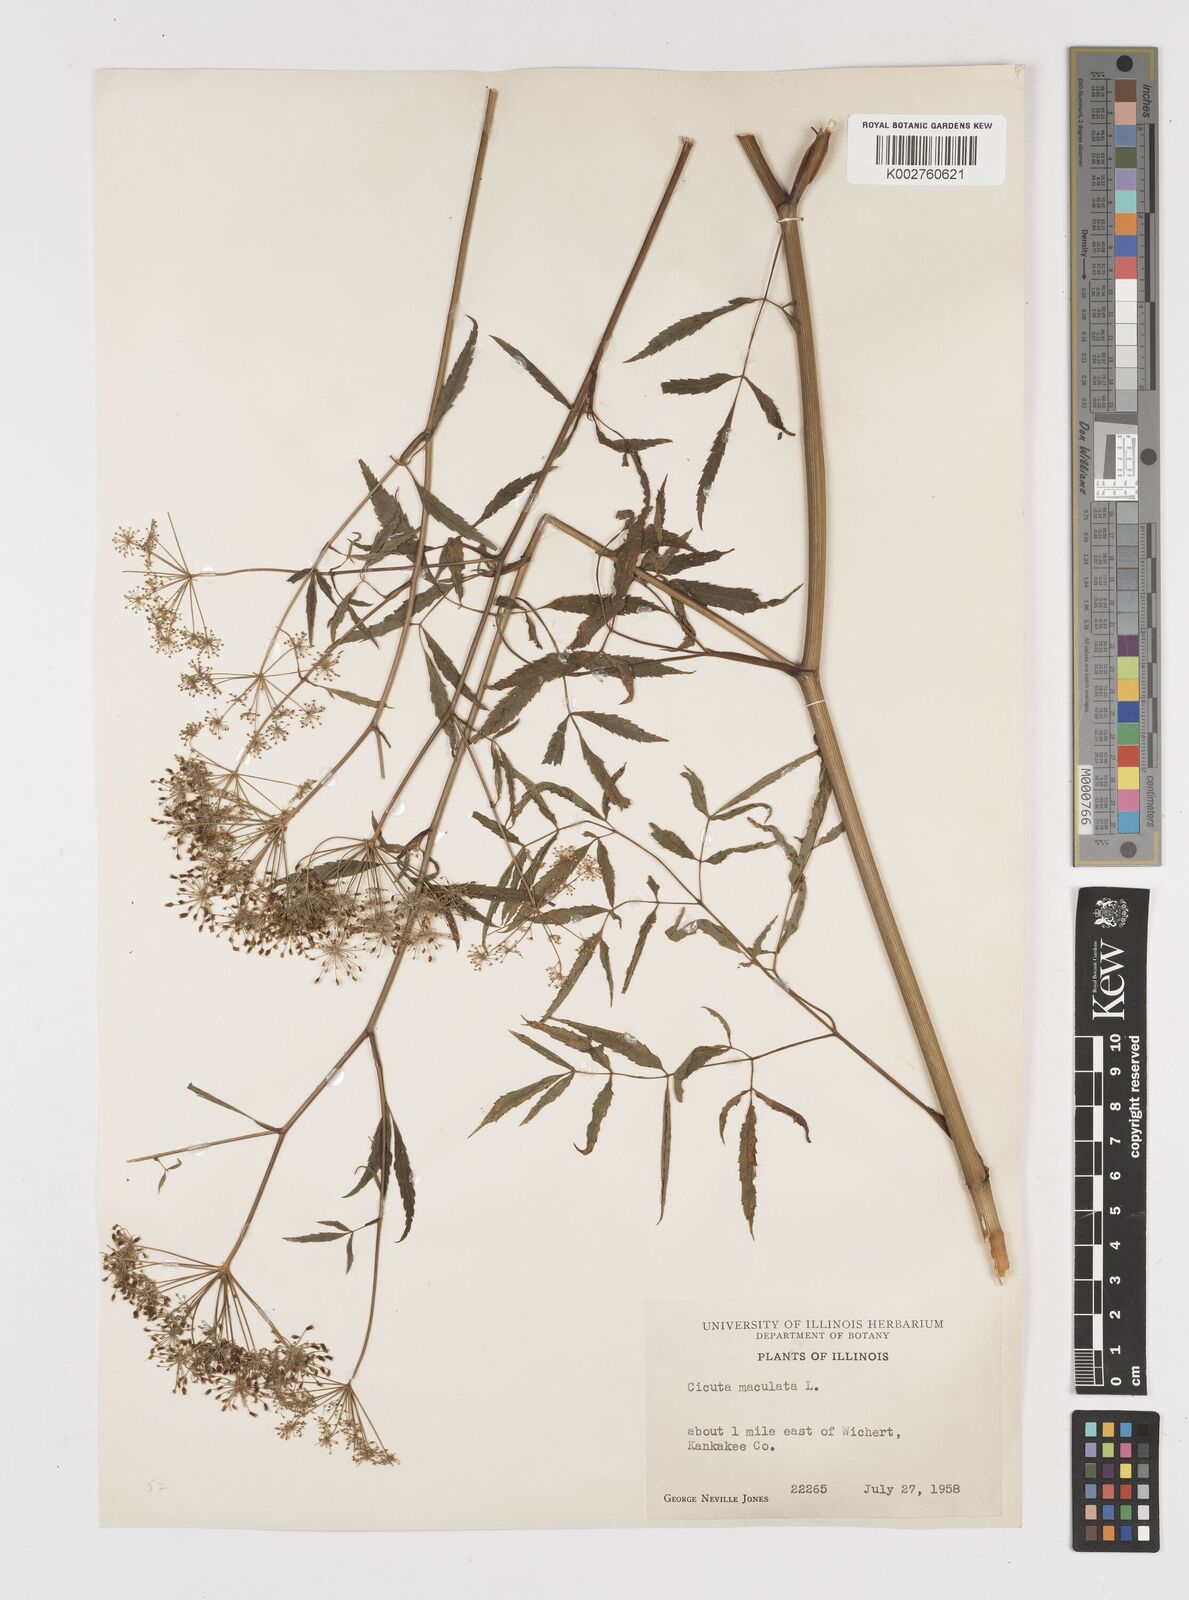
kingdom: Plantae
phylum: Tracheophyta
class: Magnoliopsida
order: Apiales
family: Apiaceae
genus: Cicuta
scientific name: Cicuta maculata
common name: Spotted cowbane
